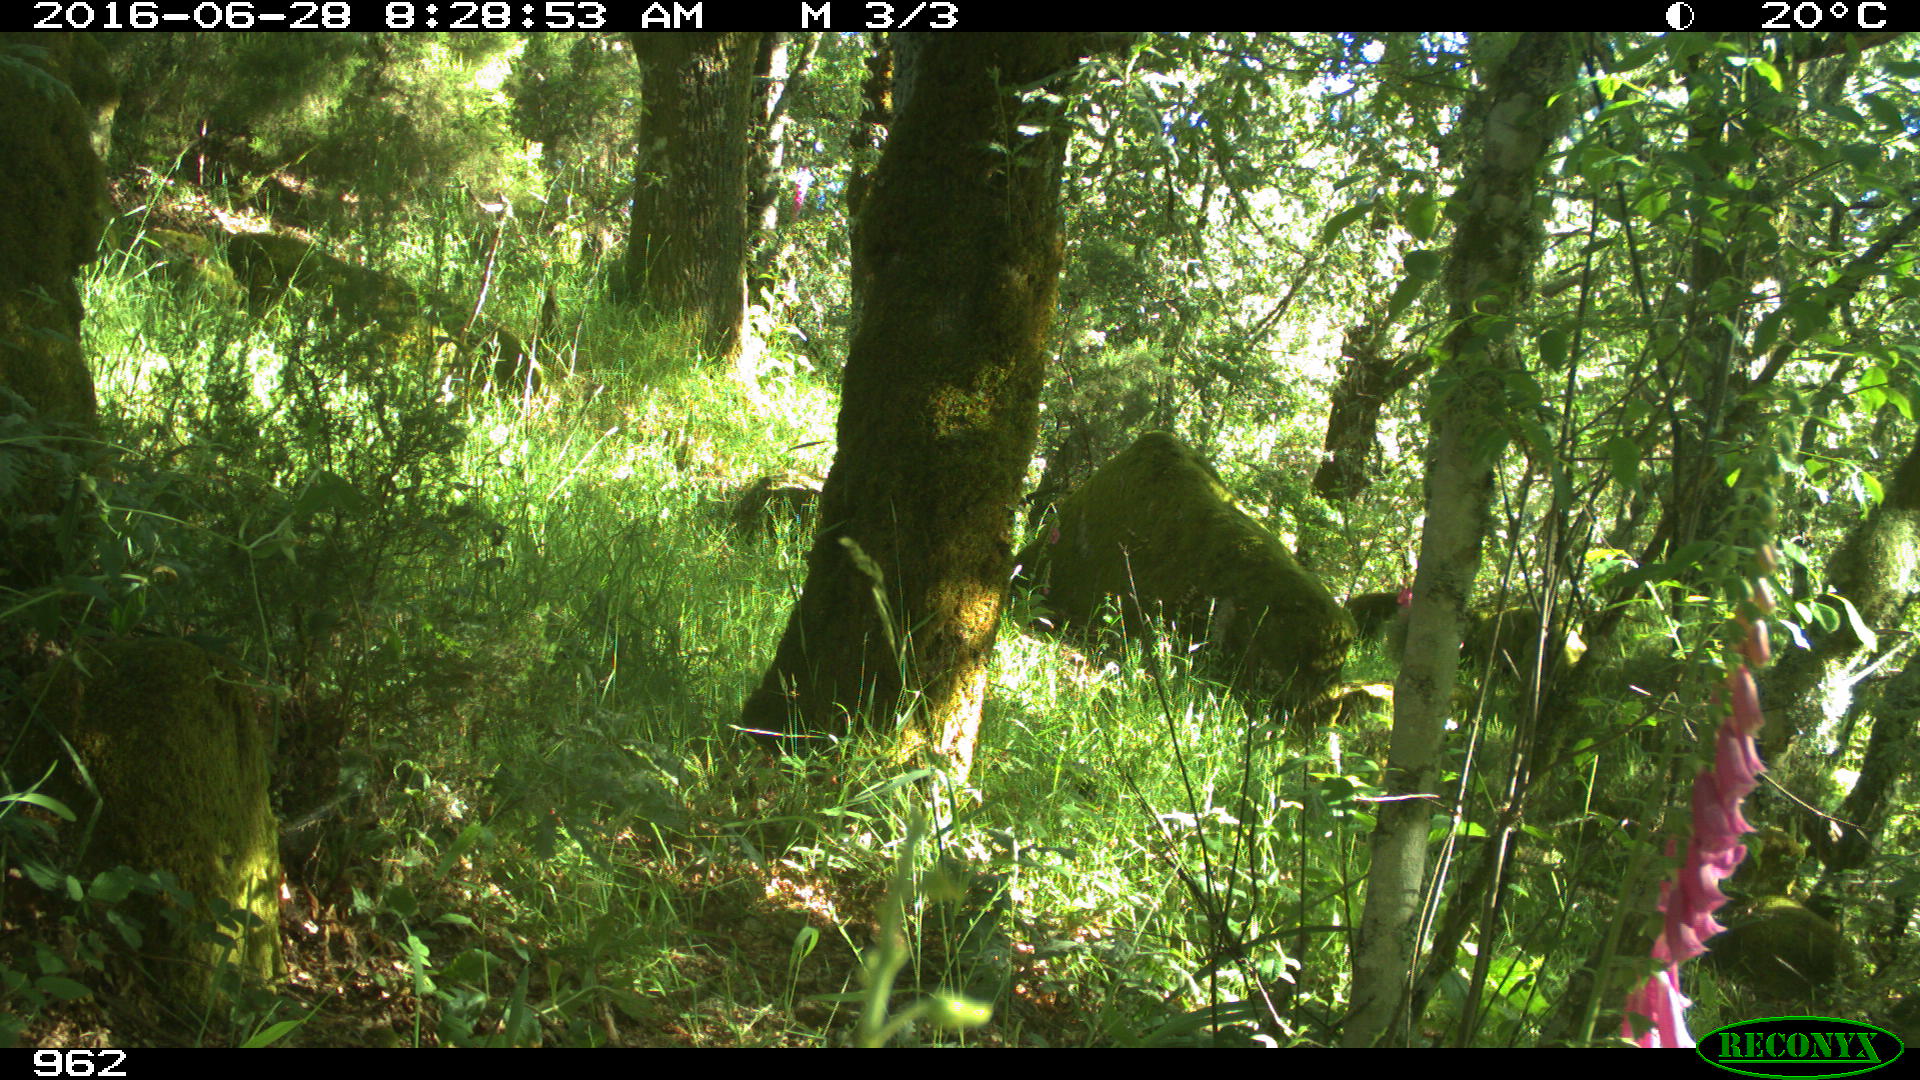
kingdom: Animalia
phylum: Chordata
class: Mammalia
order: Artiodactyla
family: Cervidae
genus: Capreolus
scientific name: Capreolus capreolus
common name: Western roe deer
